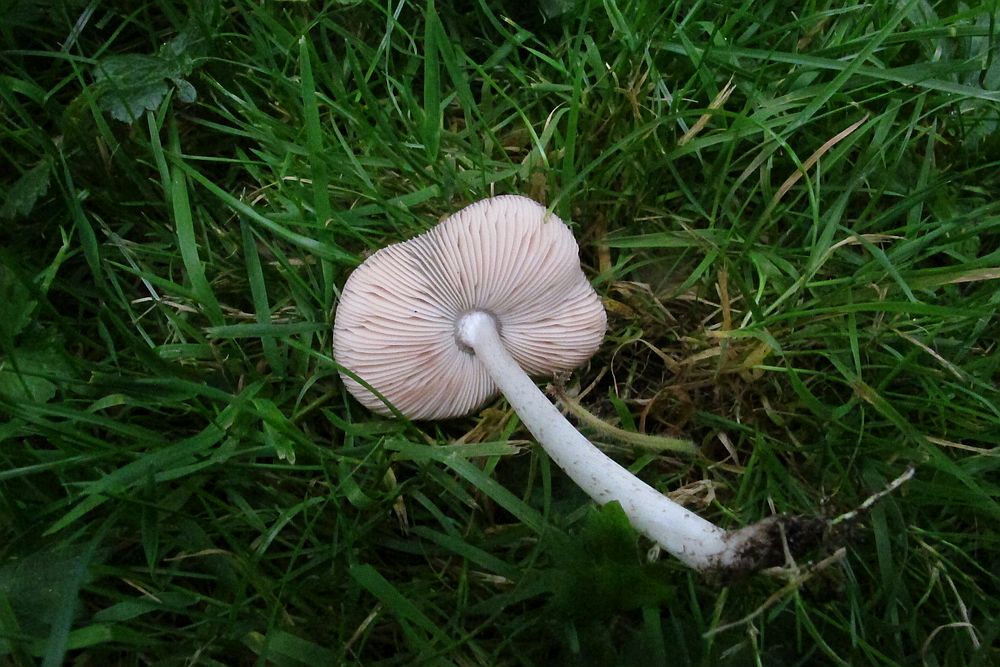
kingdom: Fungi
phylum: Basidiomycota
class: Agaricomycetes
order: Agaricales
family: Pluteaceae
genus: Pluteus
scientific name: Pluteus
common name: gråfibret skærmhat
